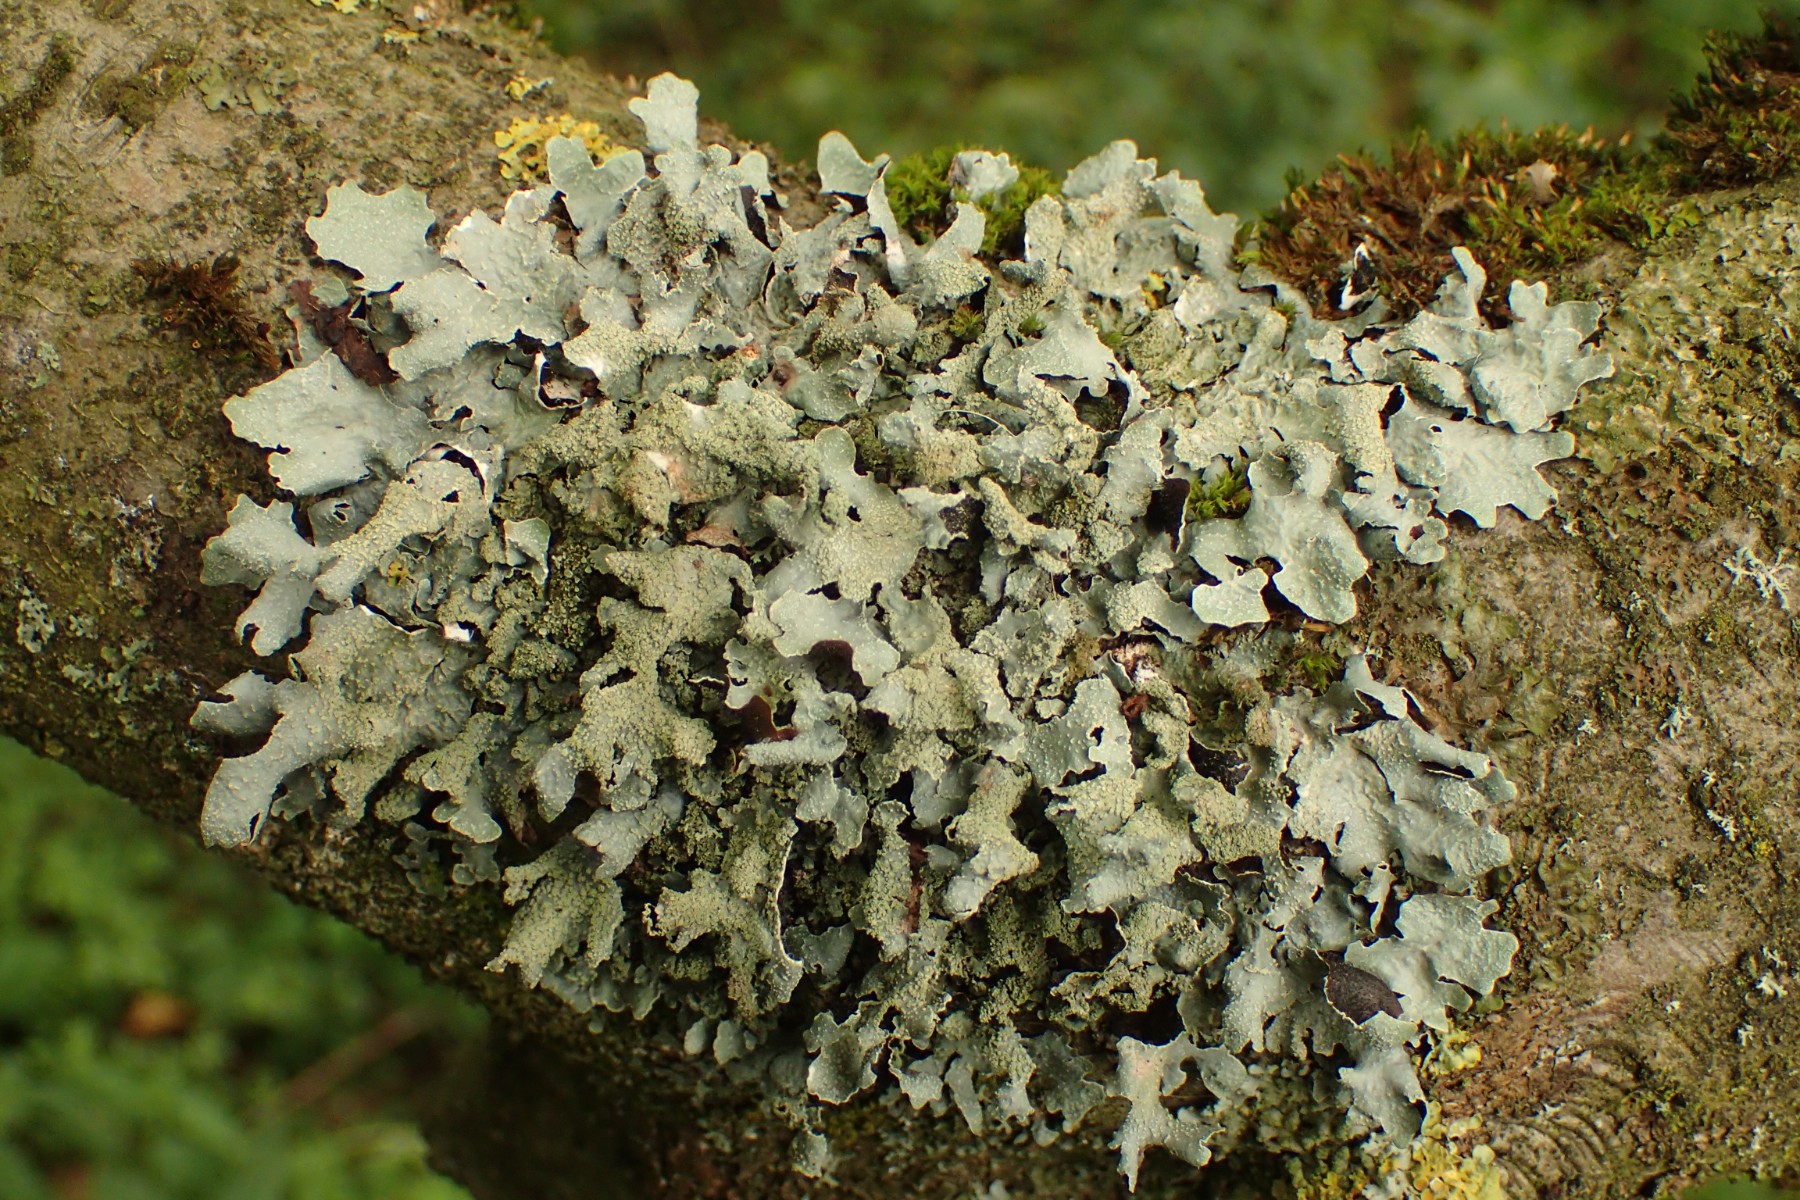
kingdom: Fungi
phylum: Ascomycota
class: Lecanoromycetes
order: Lecanorales
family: Parmeliaceae
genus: Parmelia
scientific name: Parmelia submontana
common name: langlobet skållav
